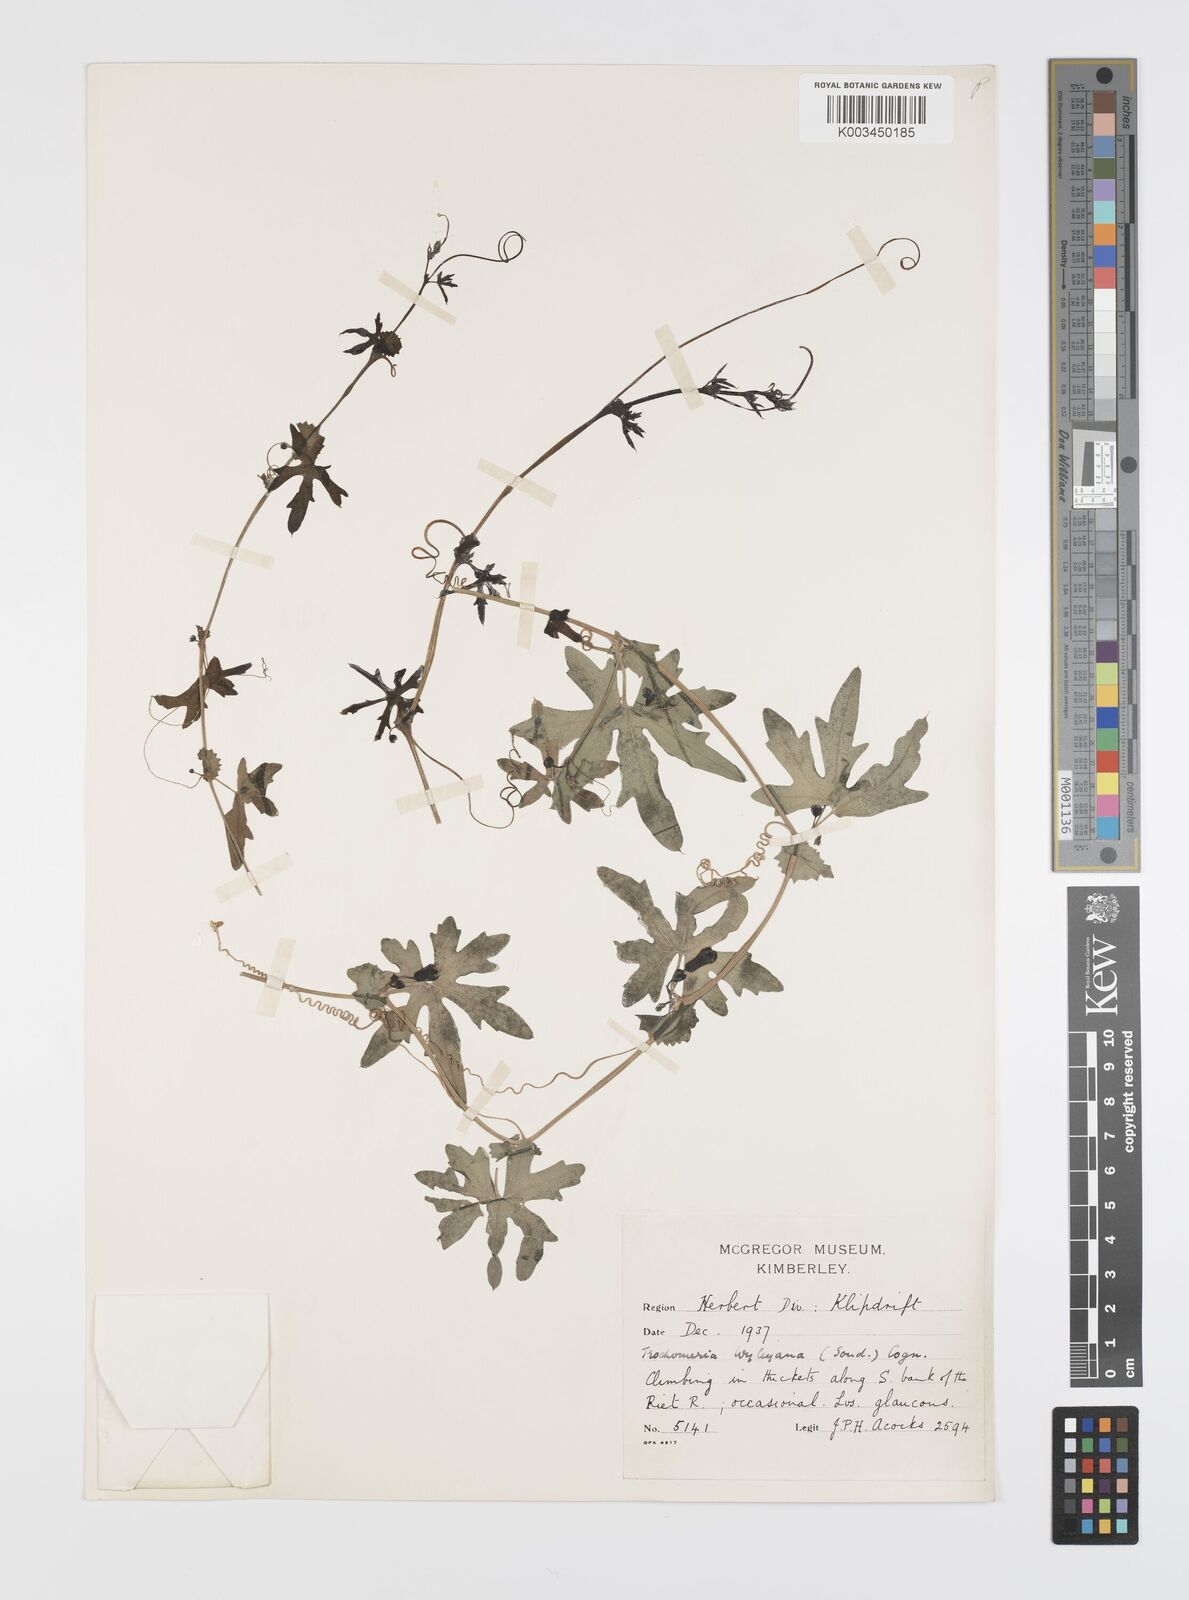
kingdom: Plantae
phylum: Tracheophyta
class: Magnoliopsida
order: Cucurbitales
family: Cucurbitaceae
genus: Trochomeria
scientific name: Trochomeria debilis
